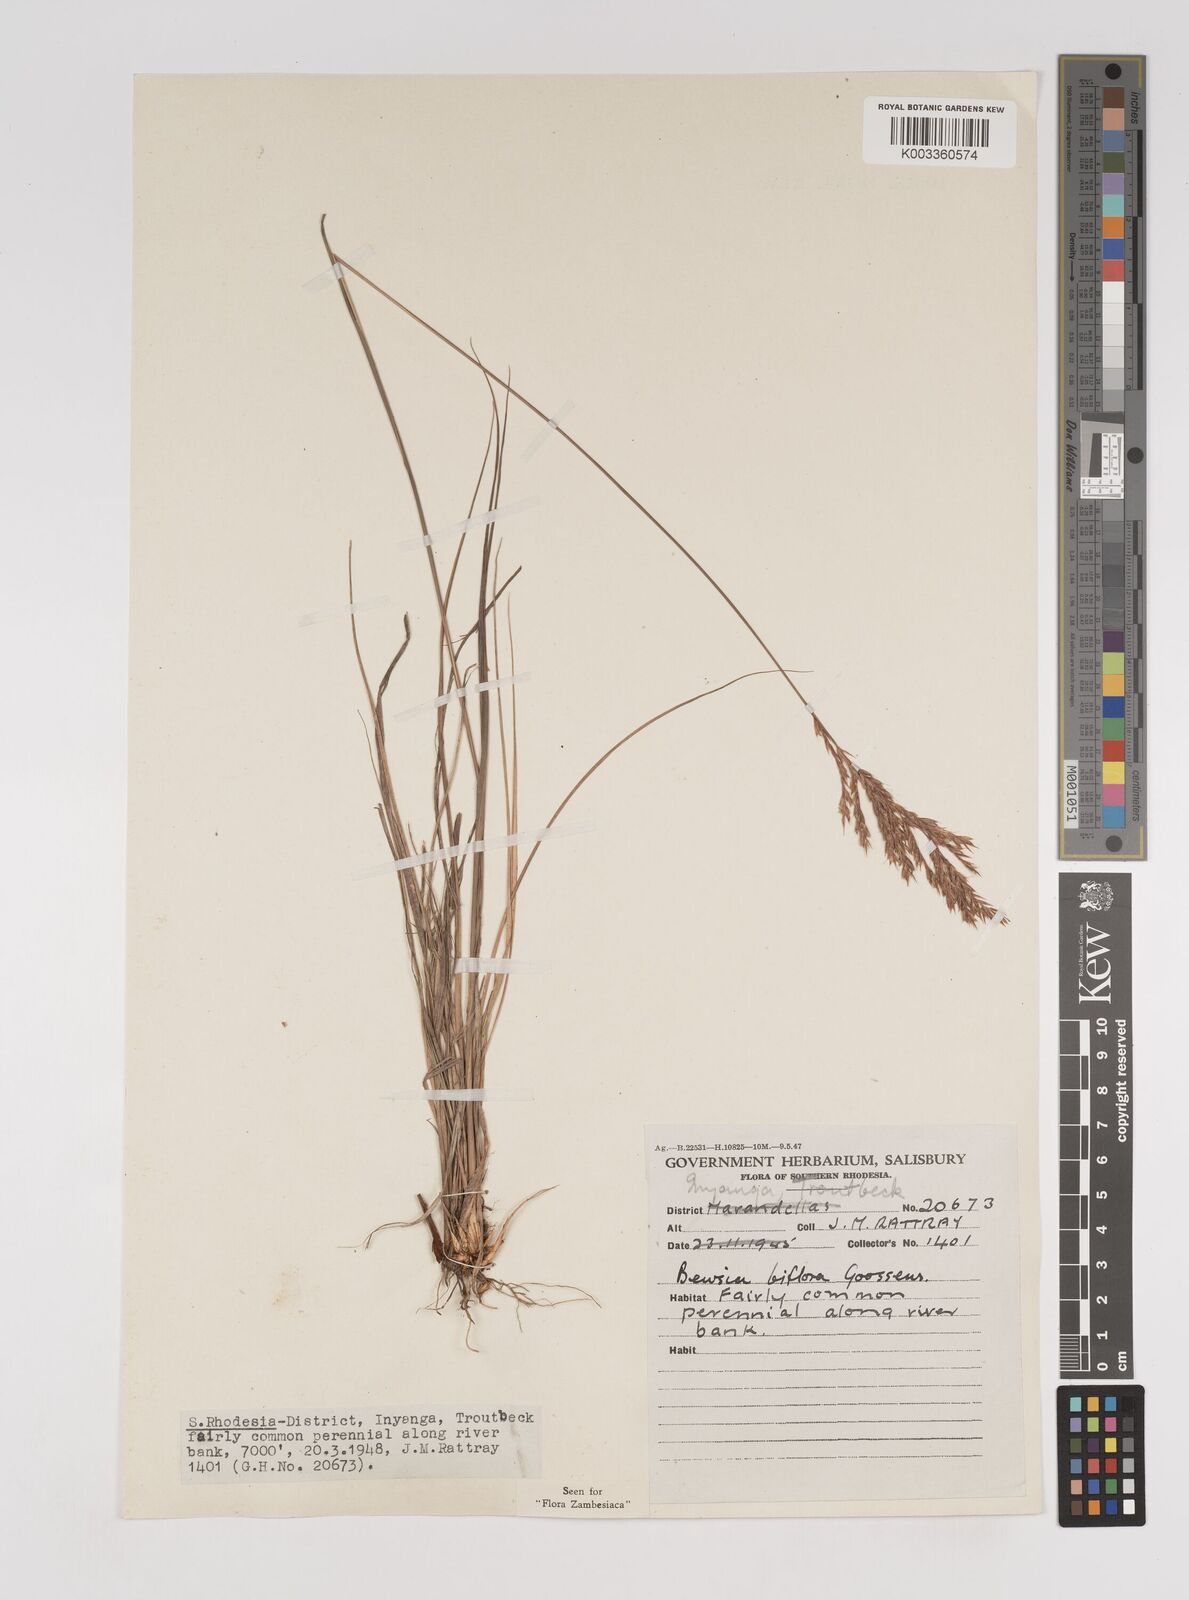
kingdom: Plantae
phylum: Tracheophyta
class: Liliopsida
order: Poales
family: Poaceae
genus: Bewsia
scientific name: Bewsia biflora
